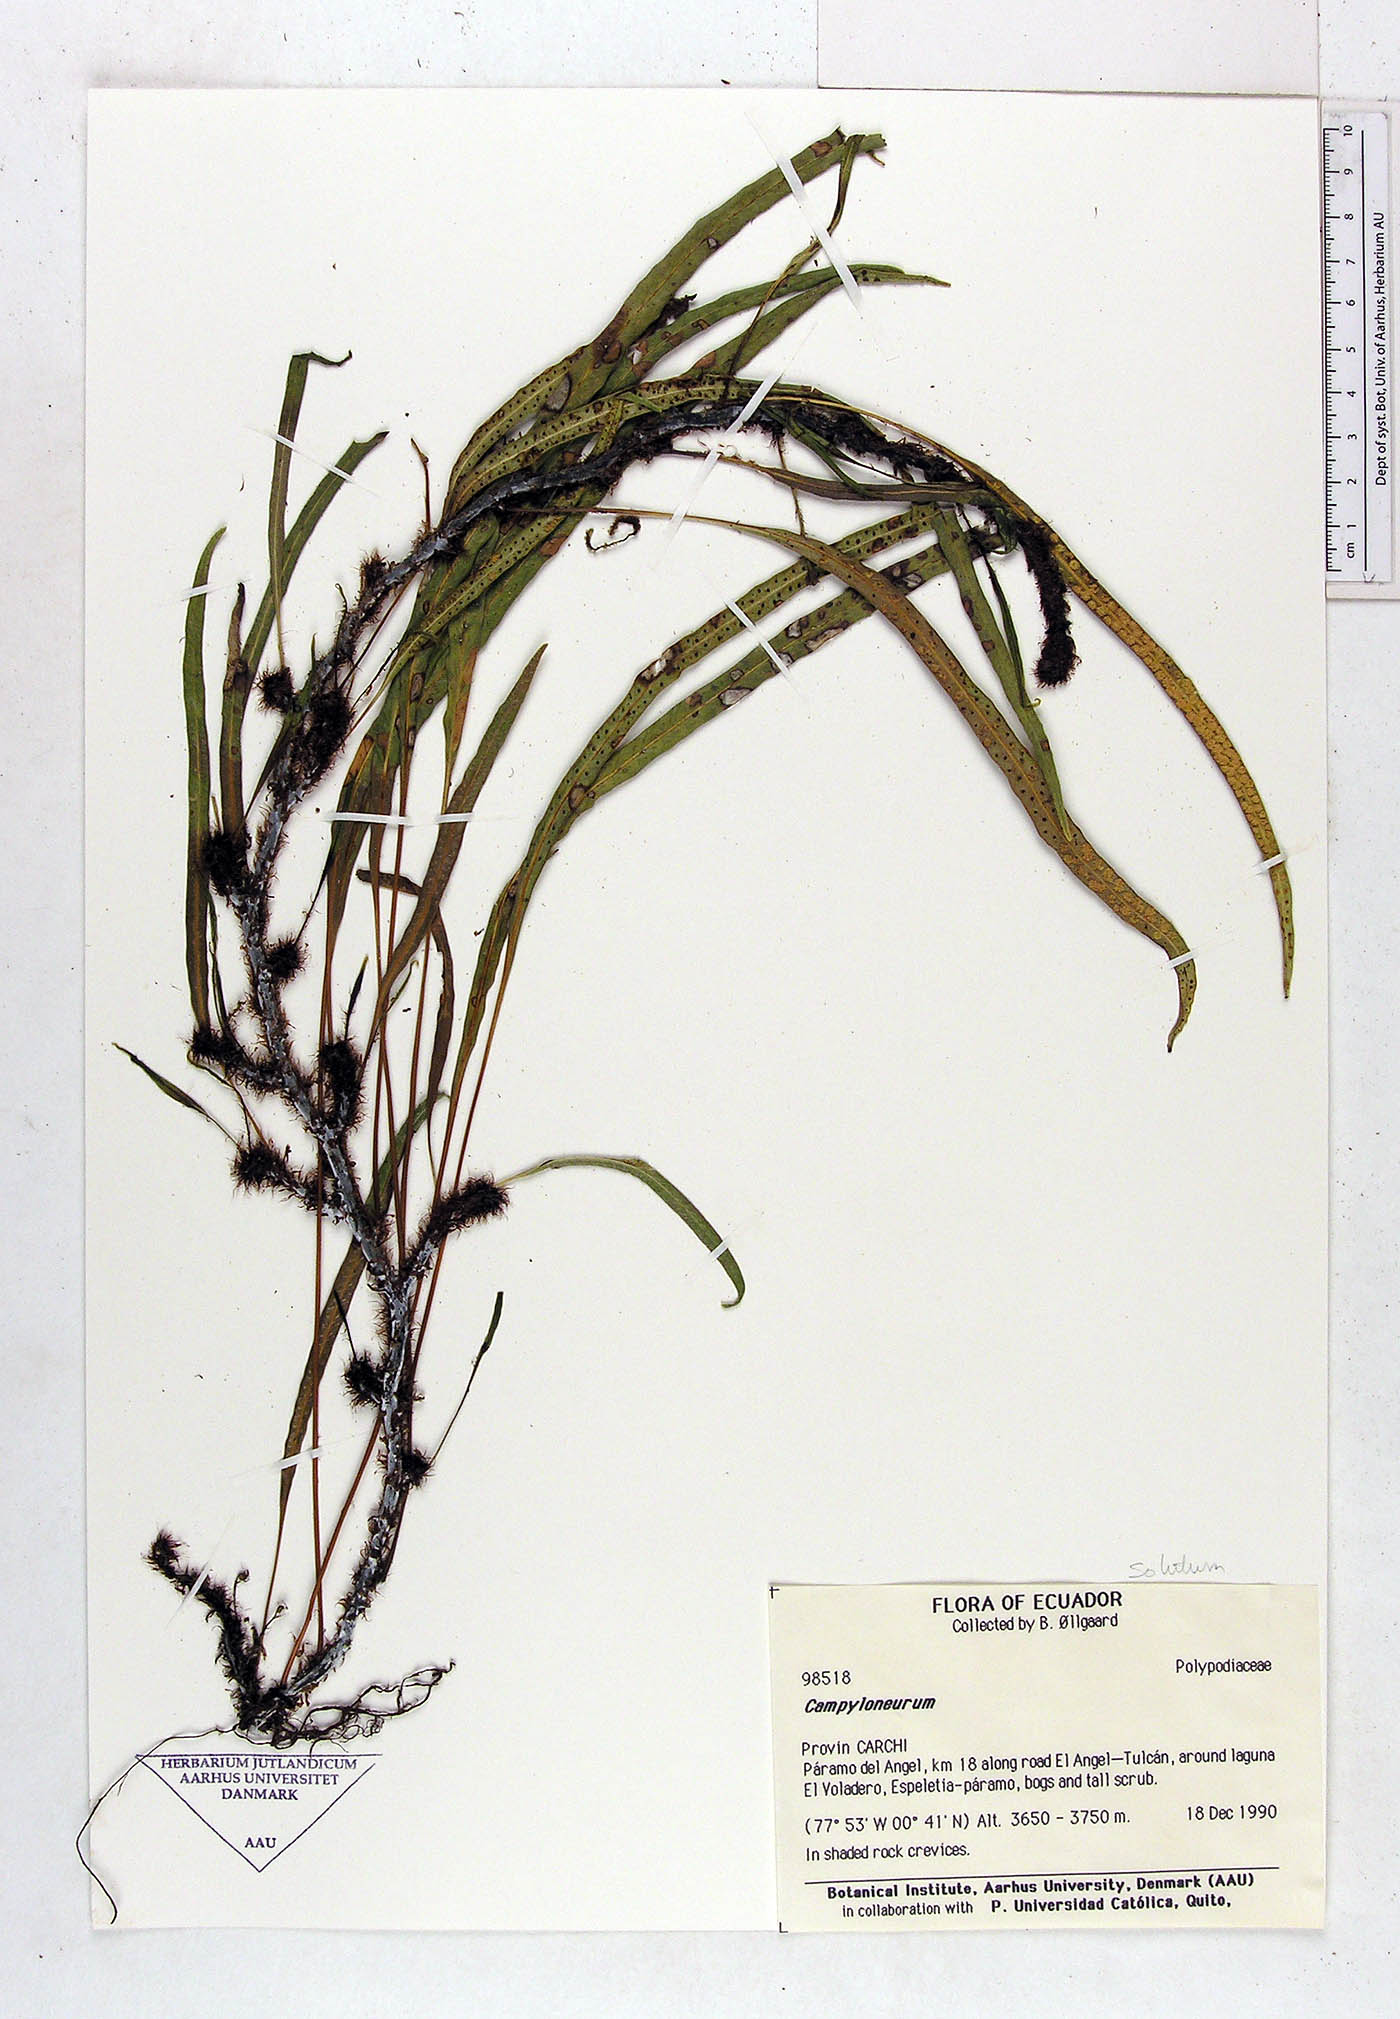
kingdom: Plantae
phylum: Tracheophyta
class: Polypodiopsida
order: Polypodiales
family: Polypodiaceae
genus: Campyloneurum
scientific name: Campyloneurum solutum
